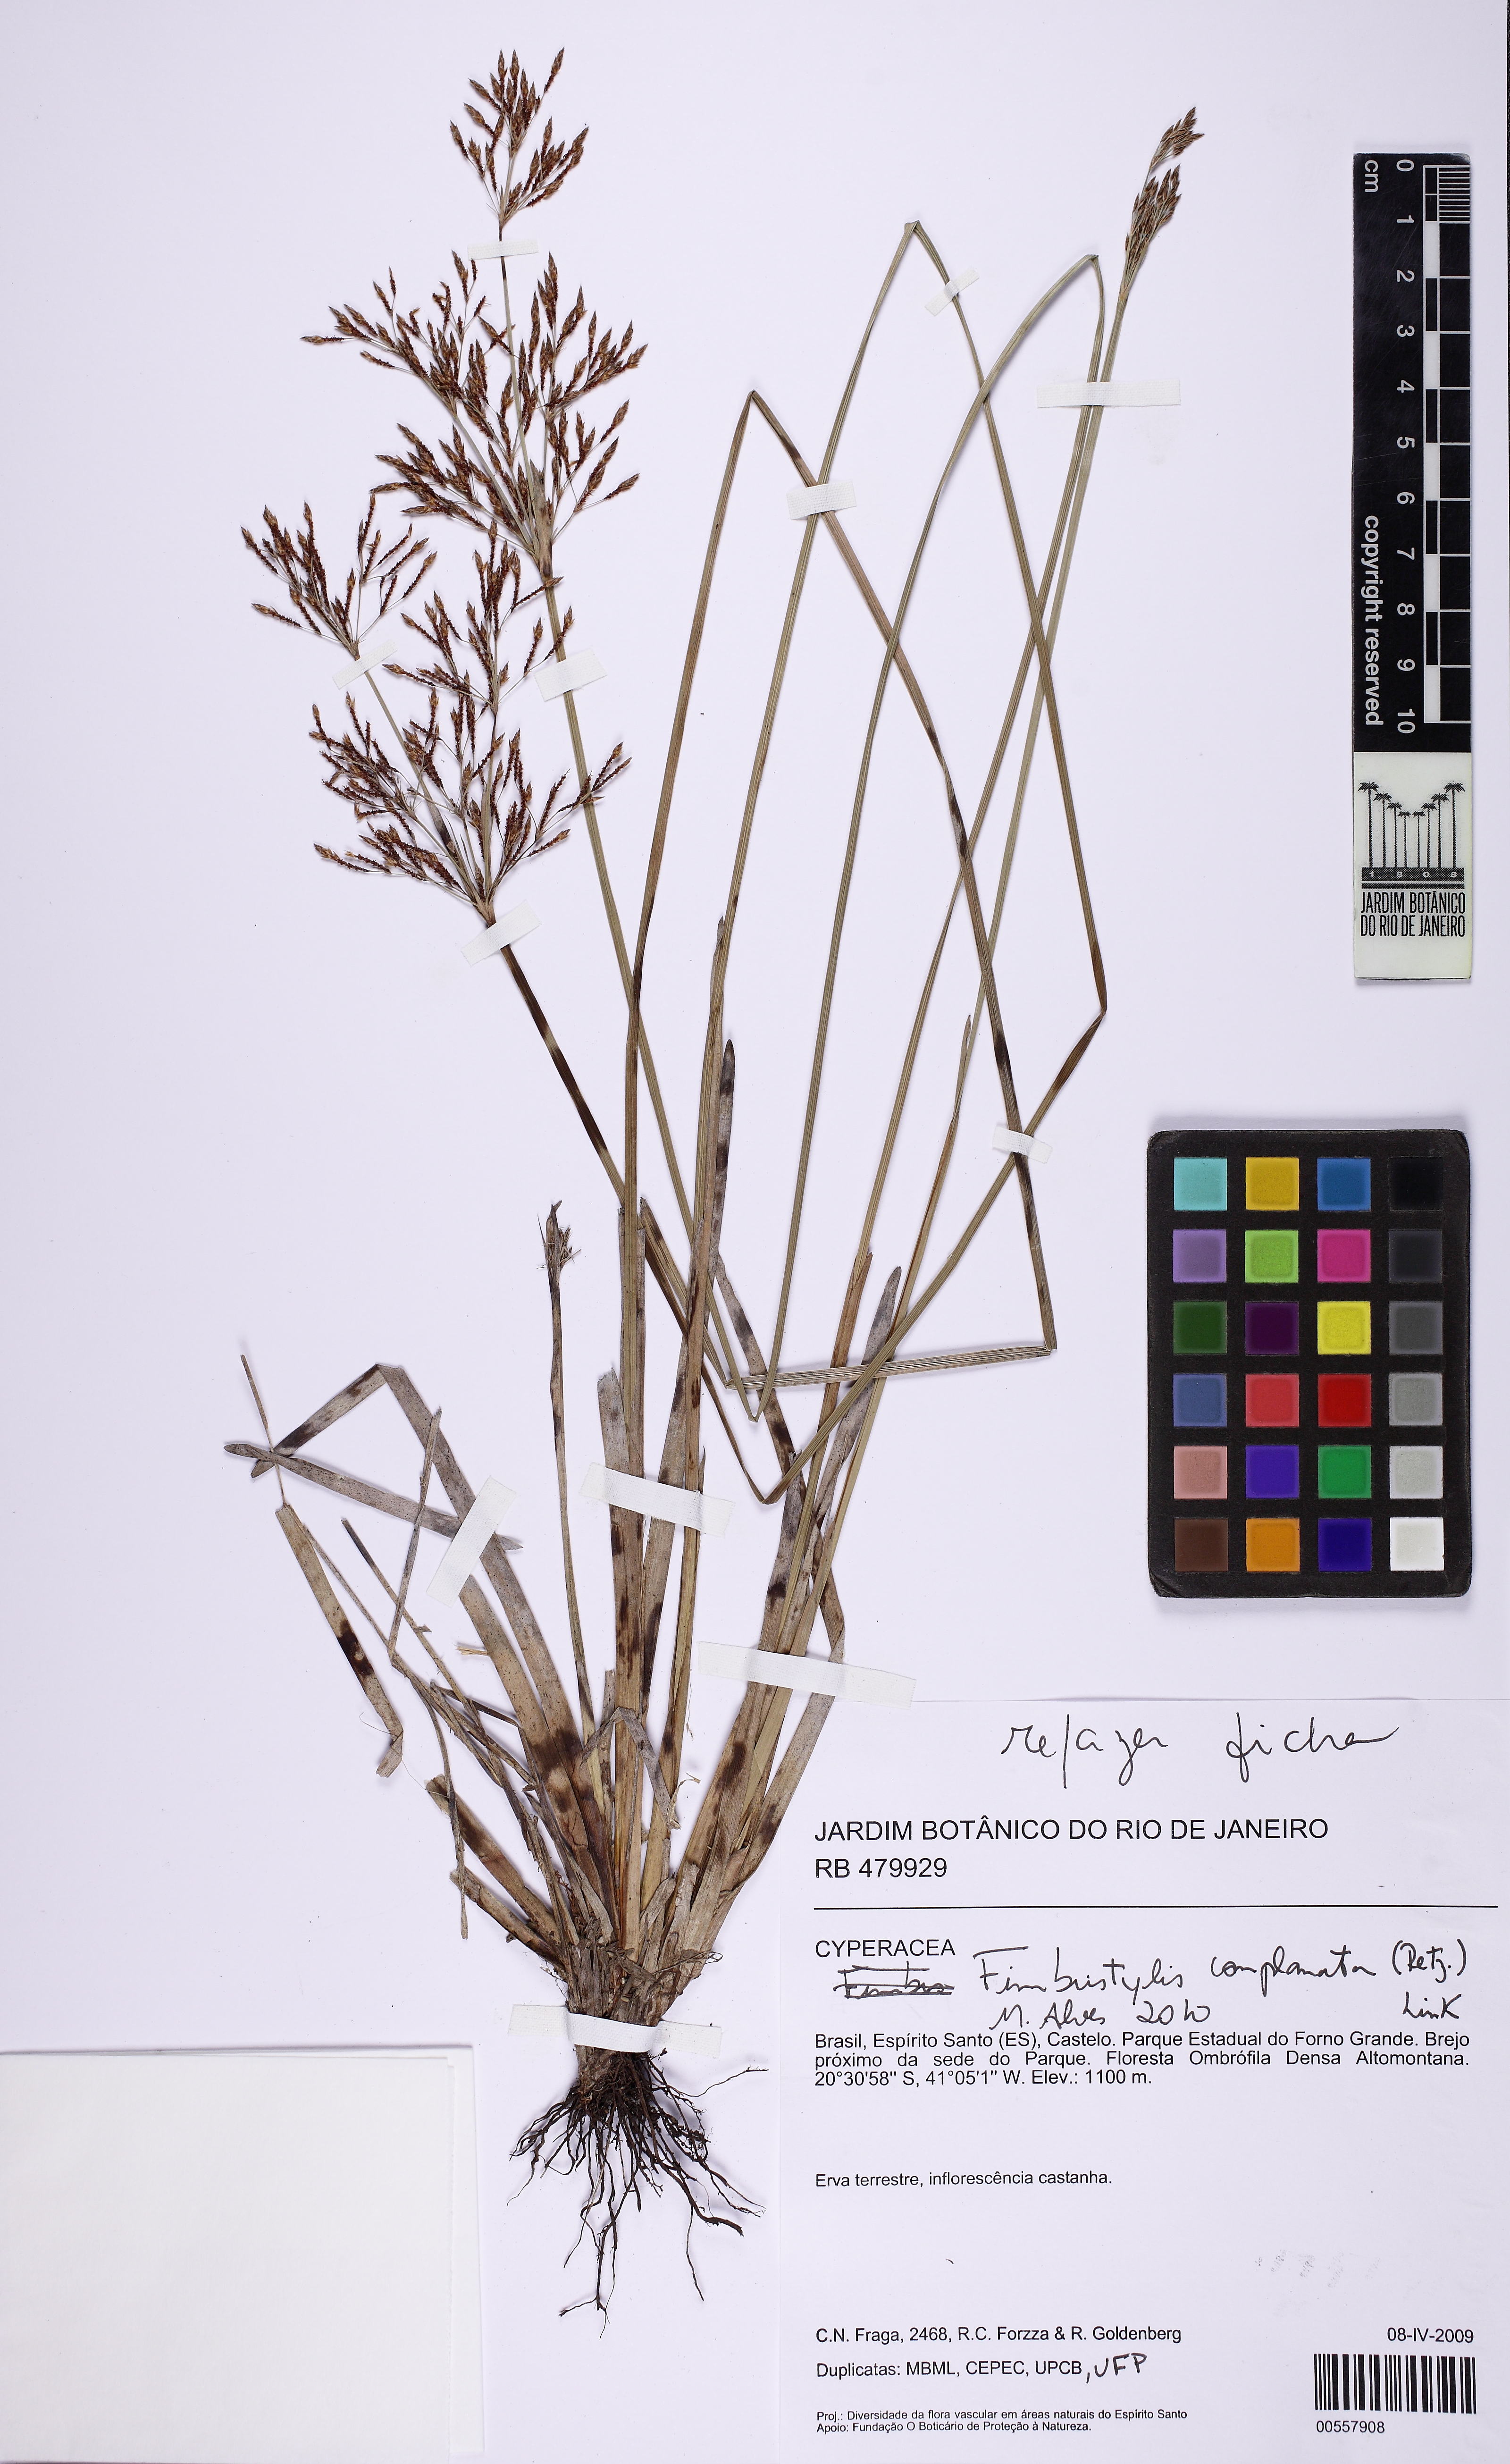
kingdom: Plantae
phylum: Tracheophyta
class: Liliopsida
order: Poales
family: Cyperaceae
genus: Fimbristylis
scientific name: Fimbristylis complanata
